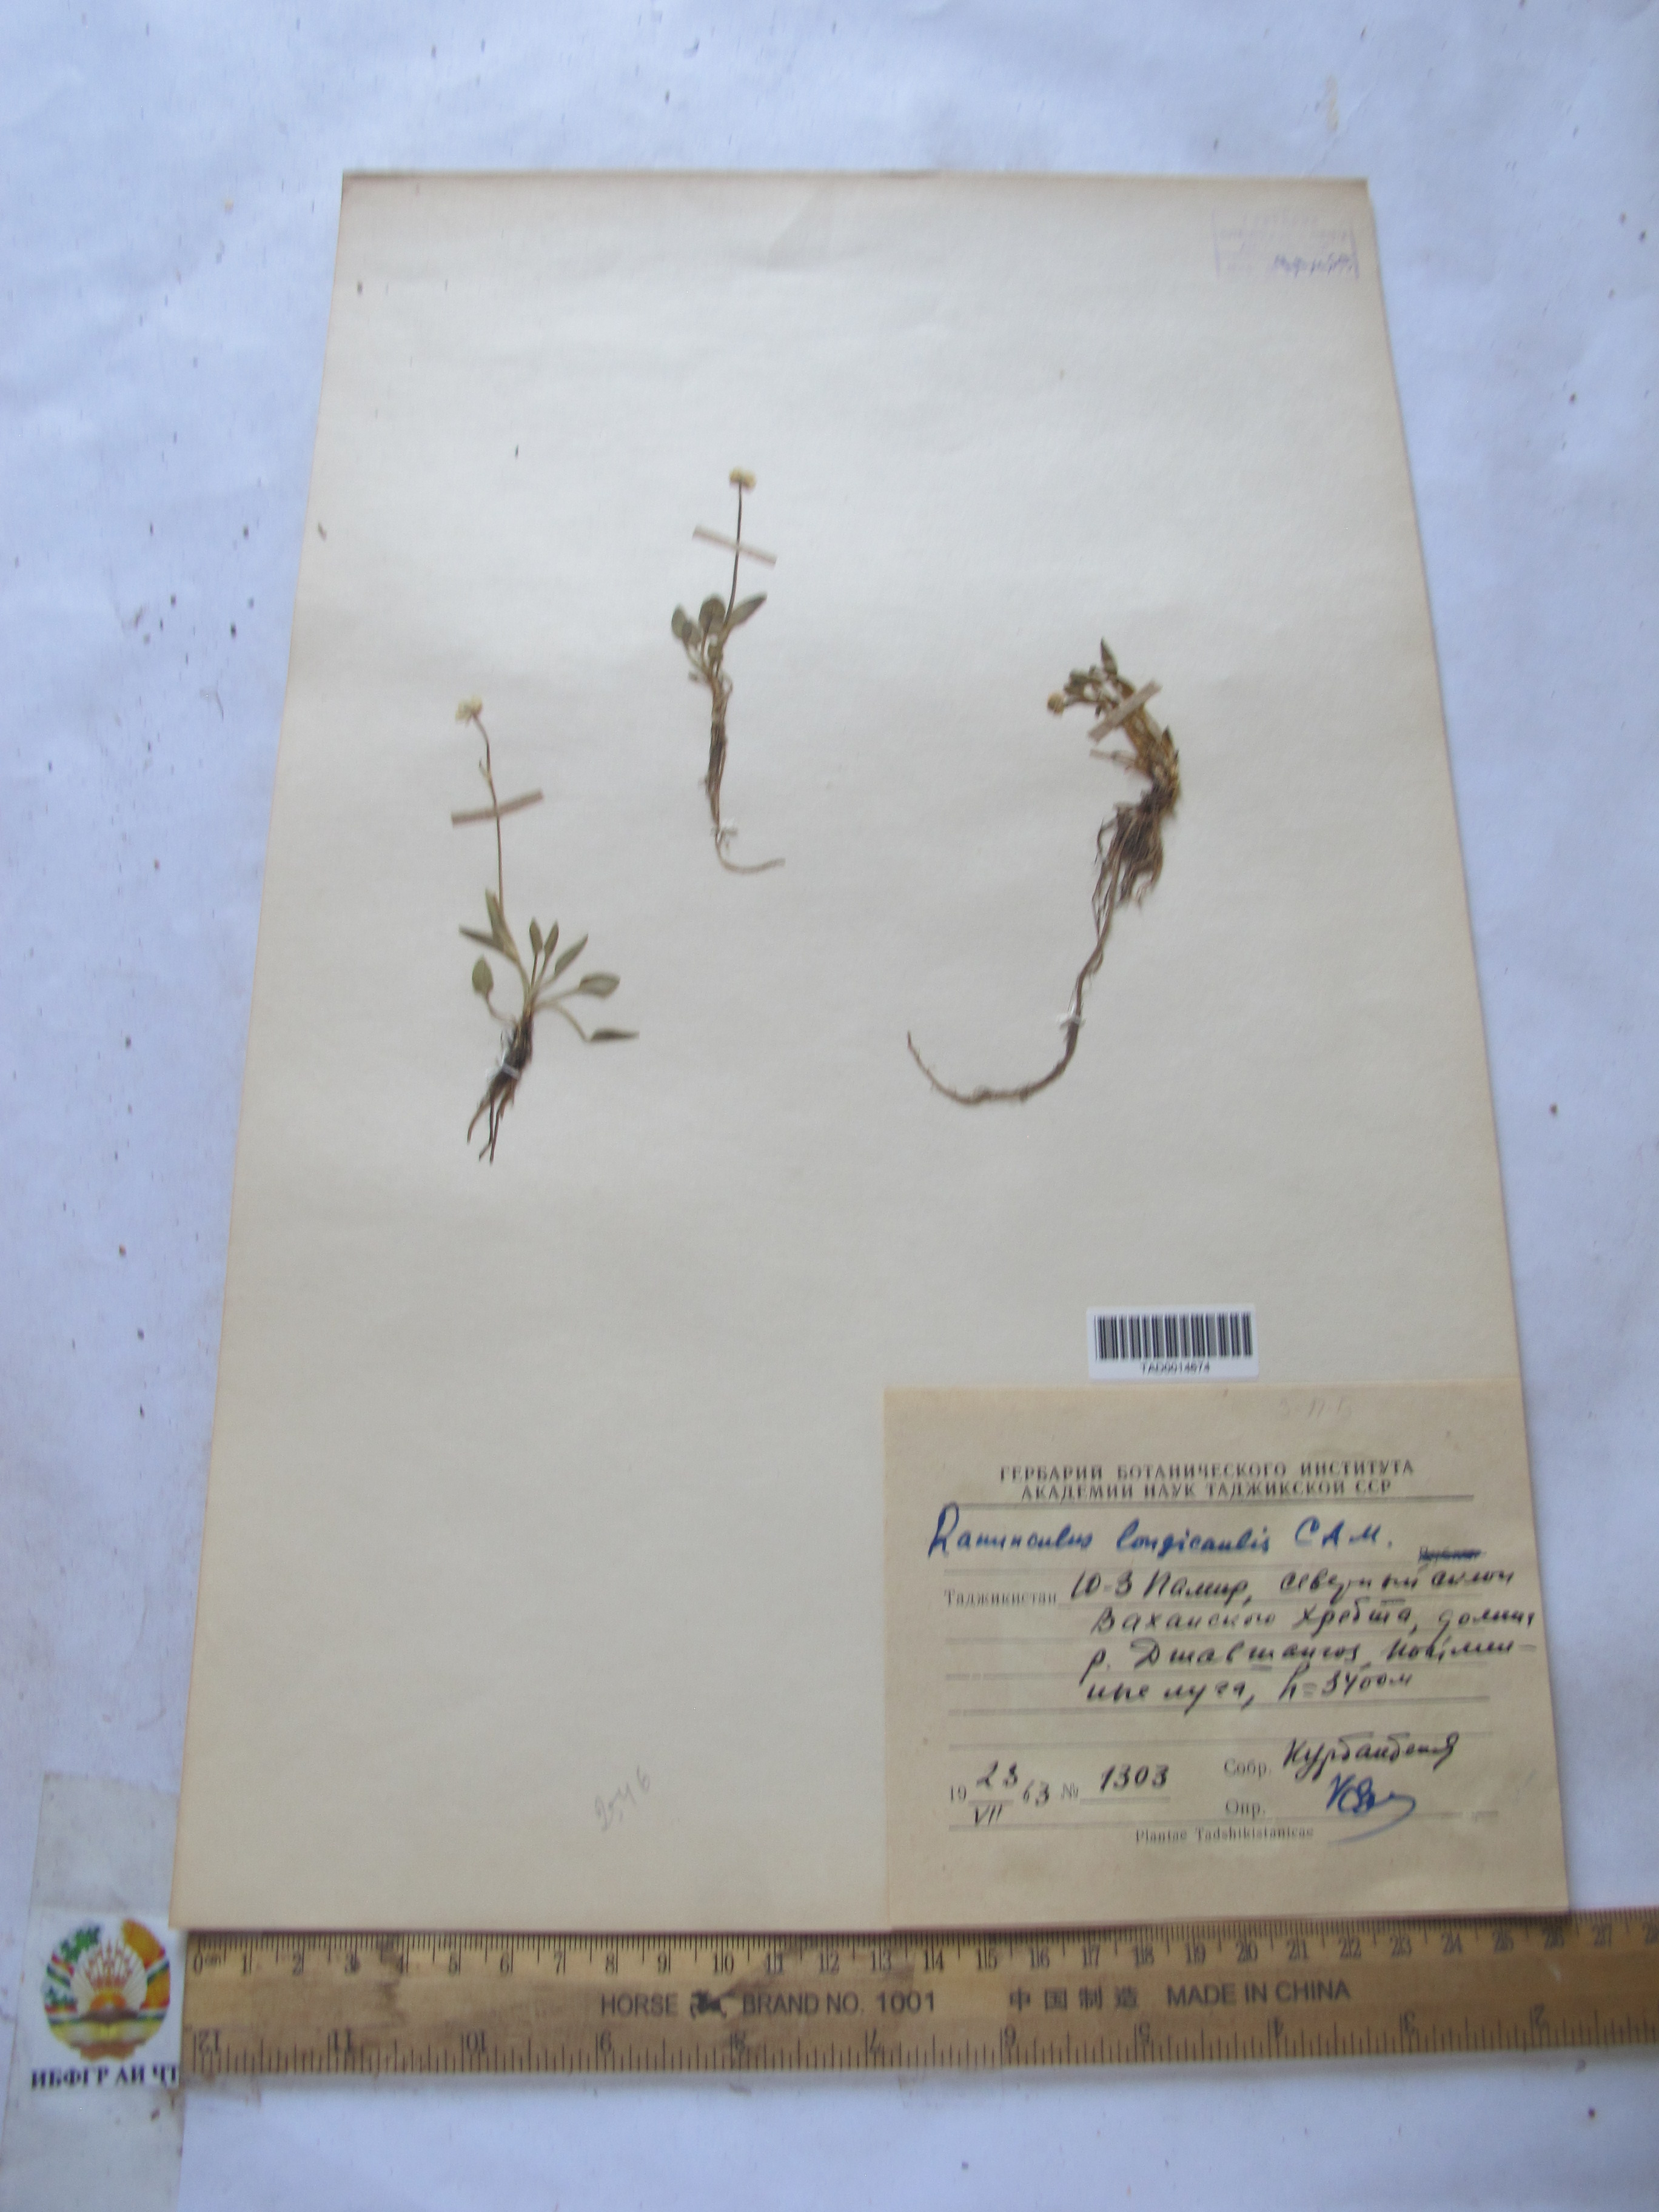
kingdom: Plantae
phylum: Tracheophyta
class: Magnoliopsida
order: Ranunculales
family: Ranunculaceae
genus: Ranunculus
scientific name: Ranunculus longicaulis
